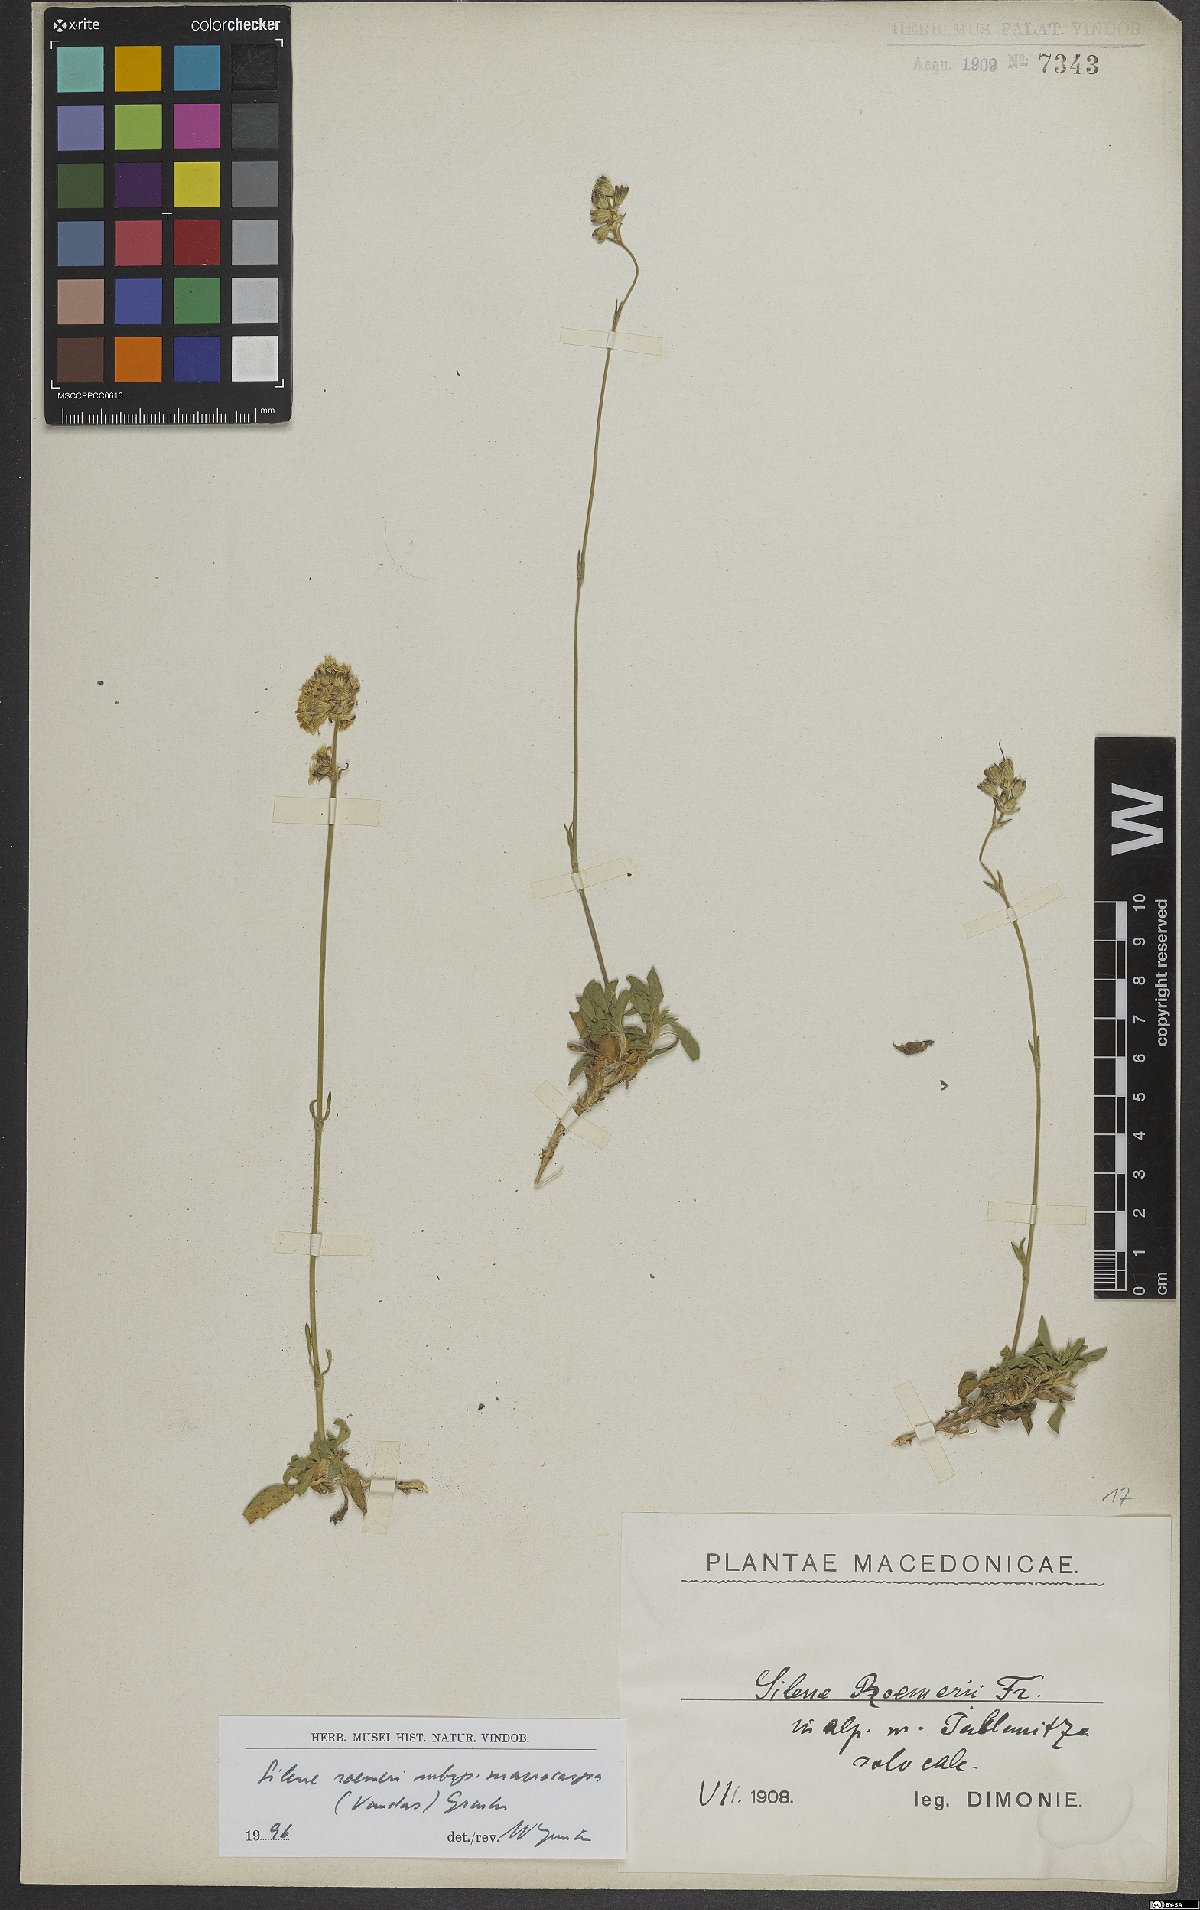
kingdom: Plantae
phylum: Tracheophyta
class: Magnoliopsida
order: Caryophyllales
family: Caryophyllaceae
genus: Silene
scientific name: Silene roemeri
